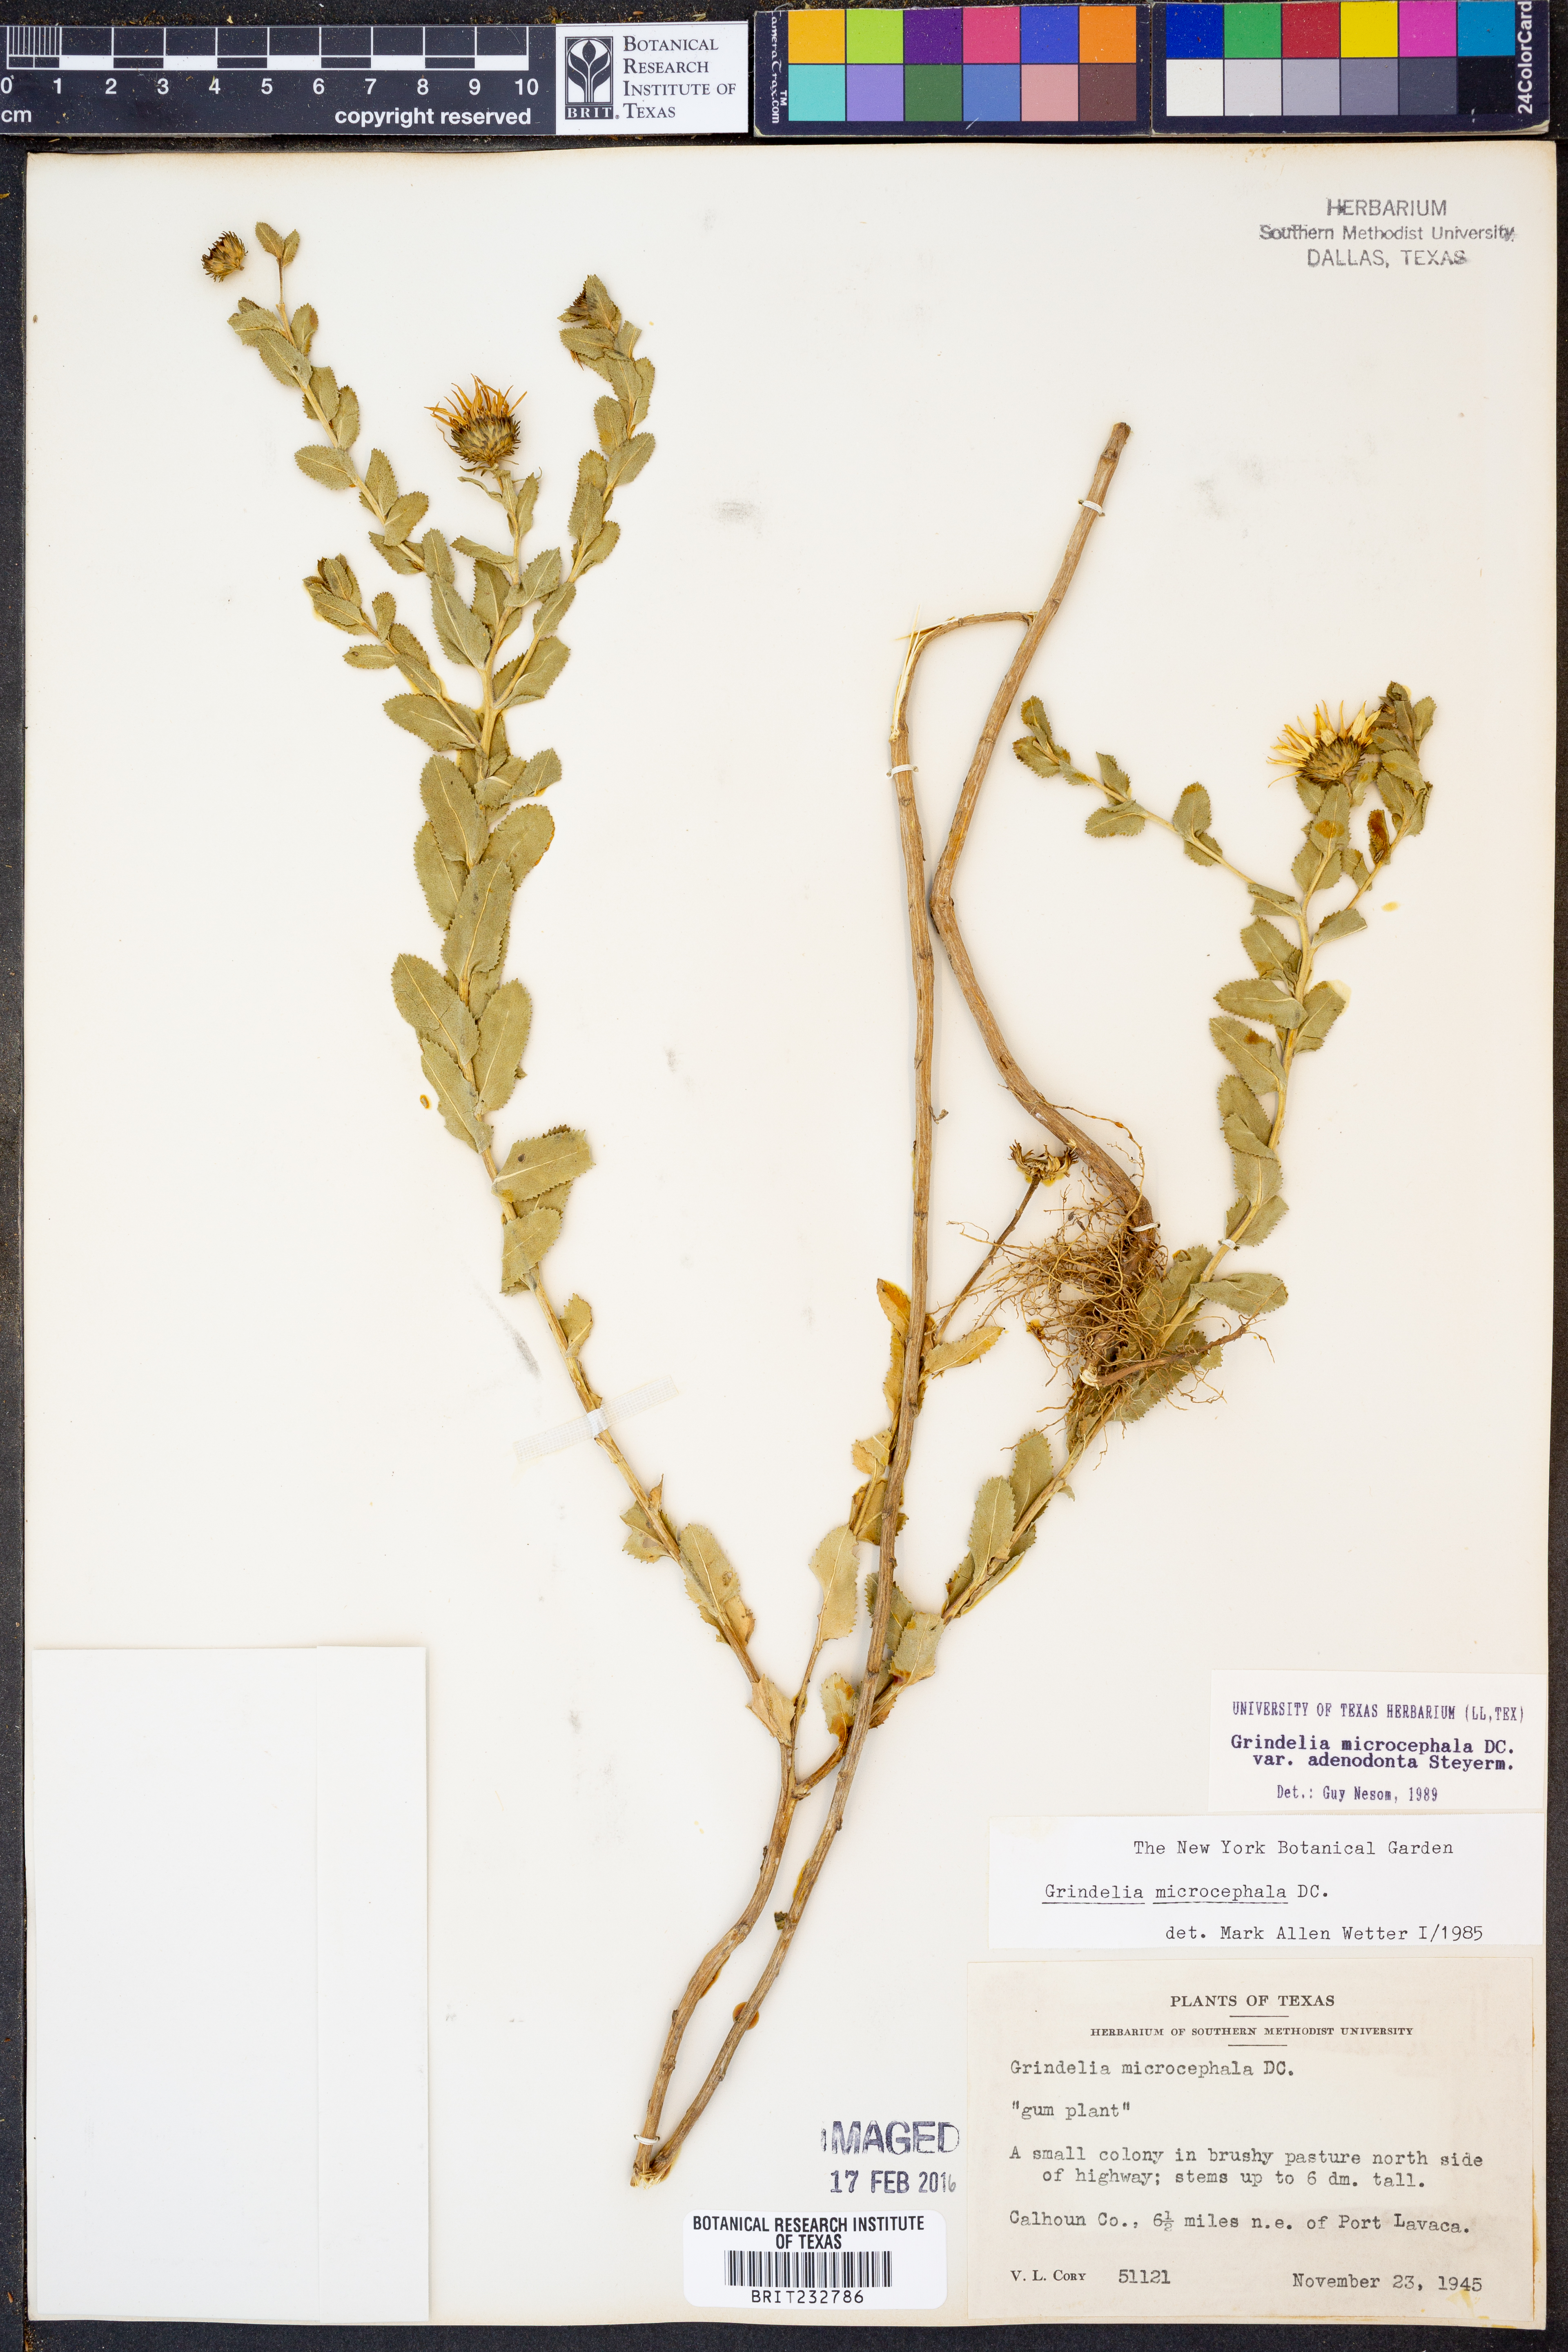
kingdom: Plantae
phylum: Tracheophyta
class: Magnoliopsida
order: Asterales
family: Asteraceae
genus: Grindelia
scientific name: Grindelia adenodonta
